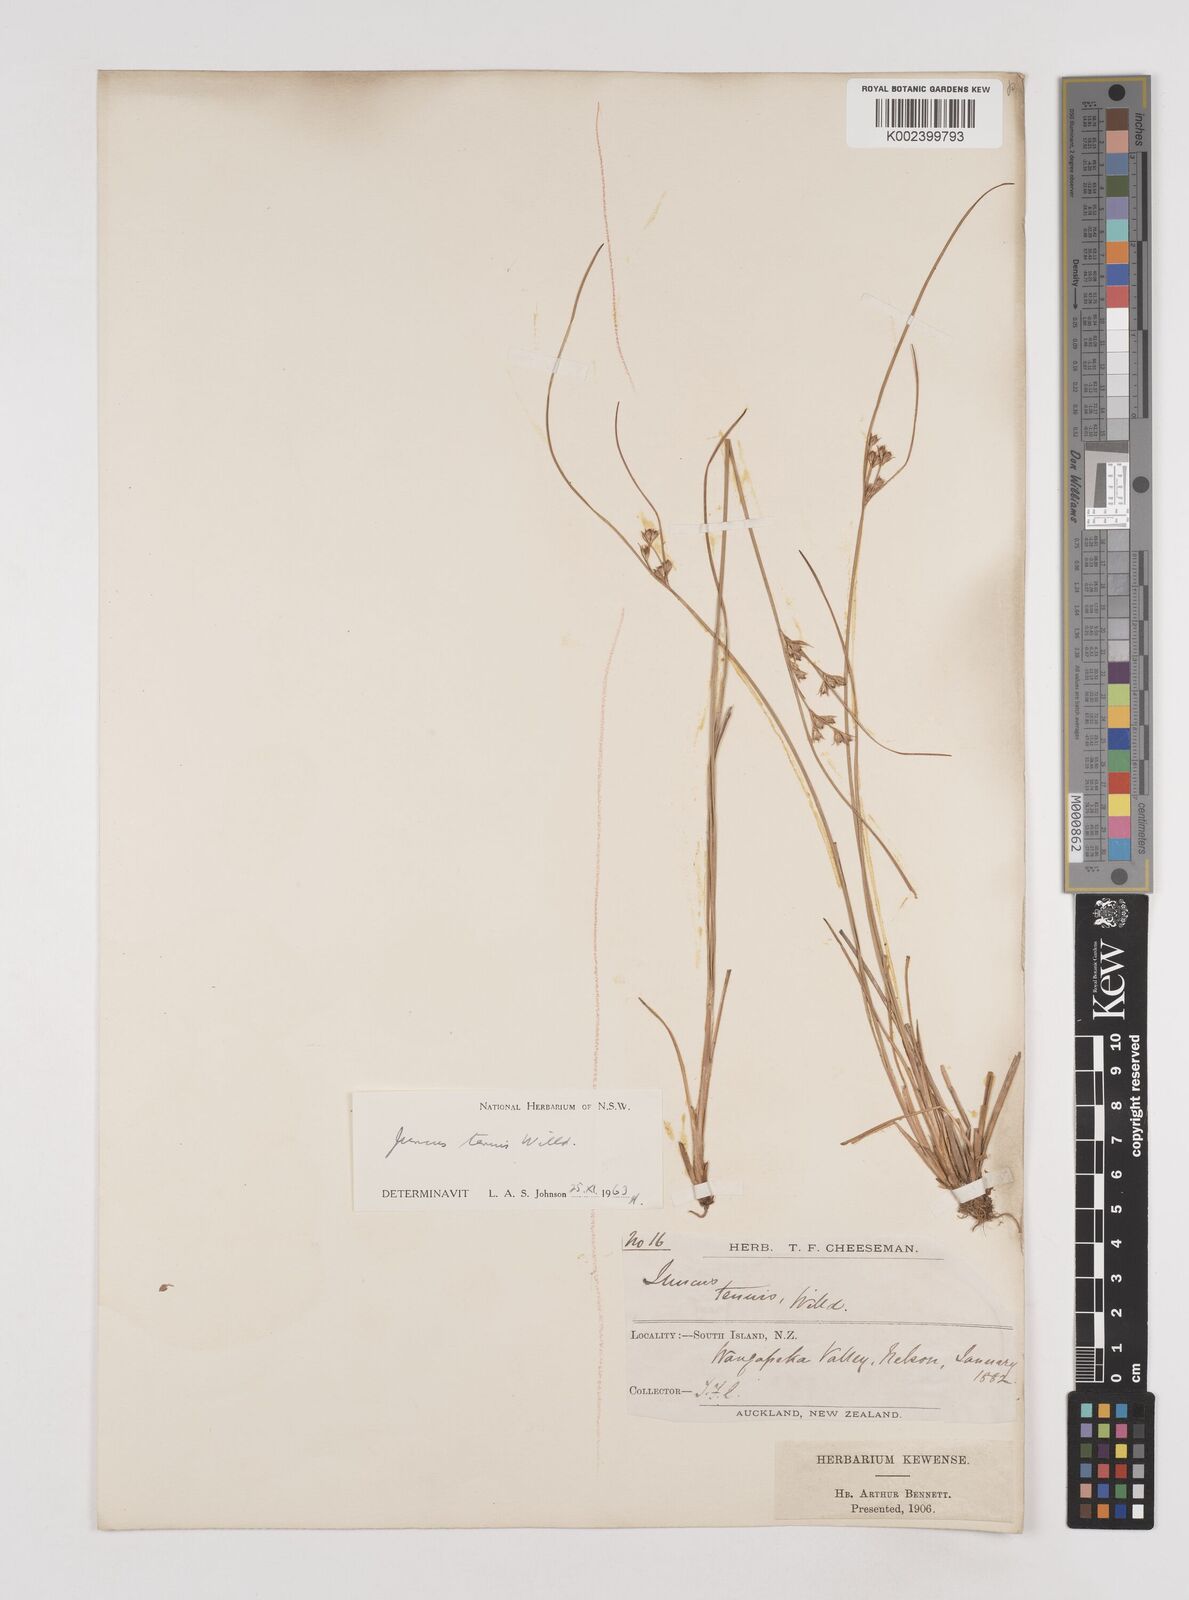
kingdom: Plantae
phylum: Tracheophyta
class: Liliopsida
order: Poales
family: Juncaceae
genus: Juncus
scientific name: Juncus tenuis
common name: Slender rush
